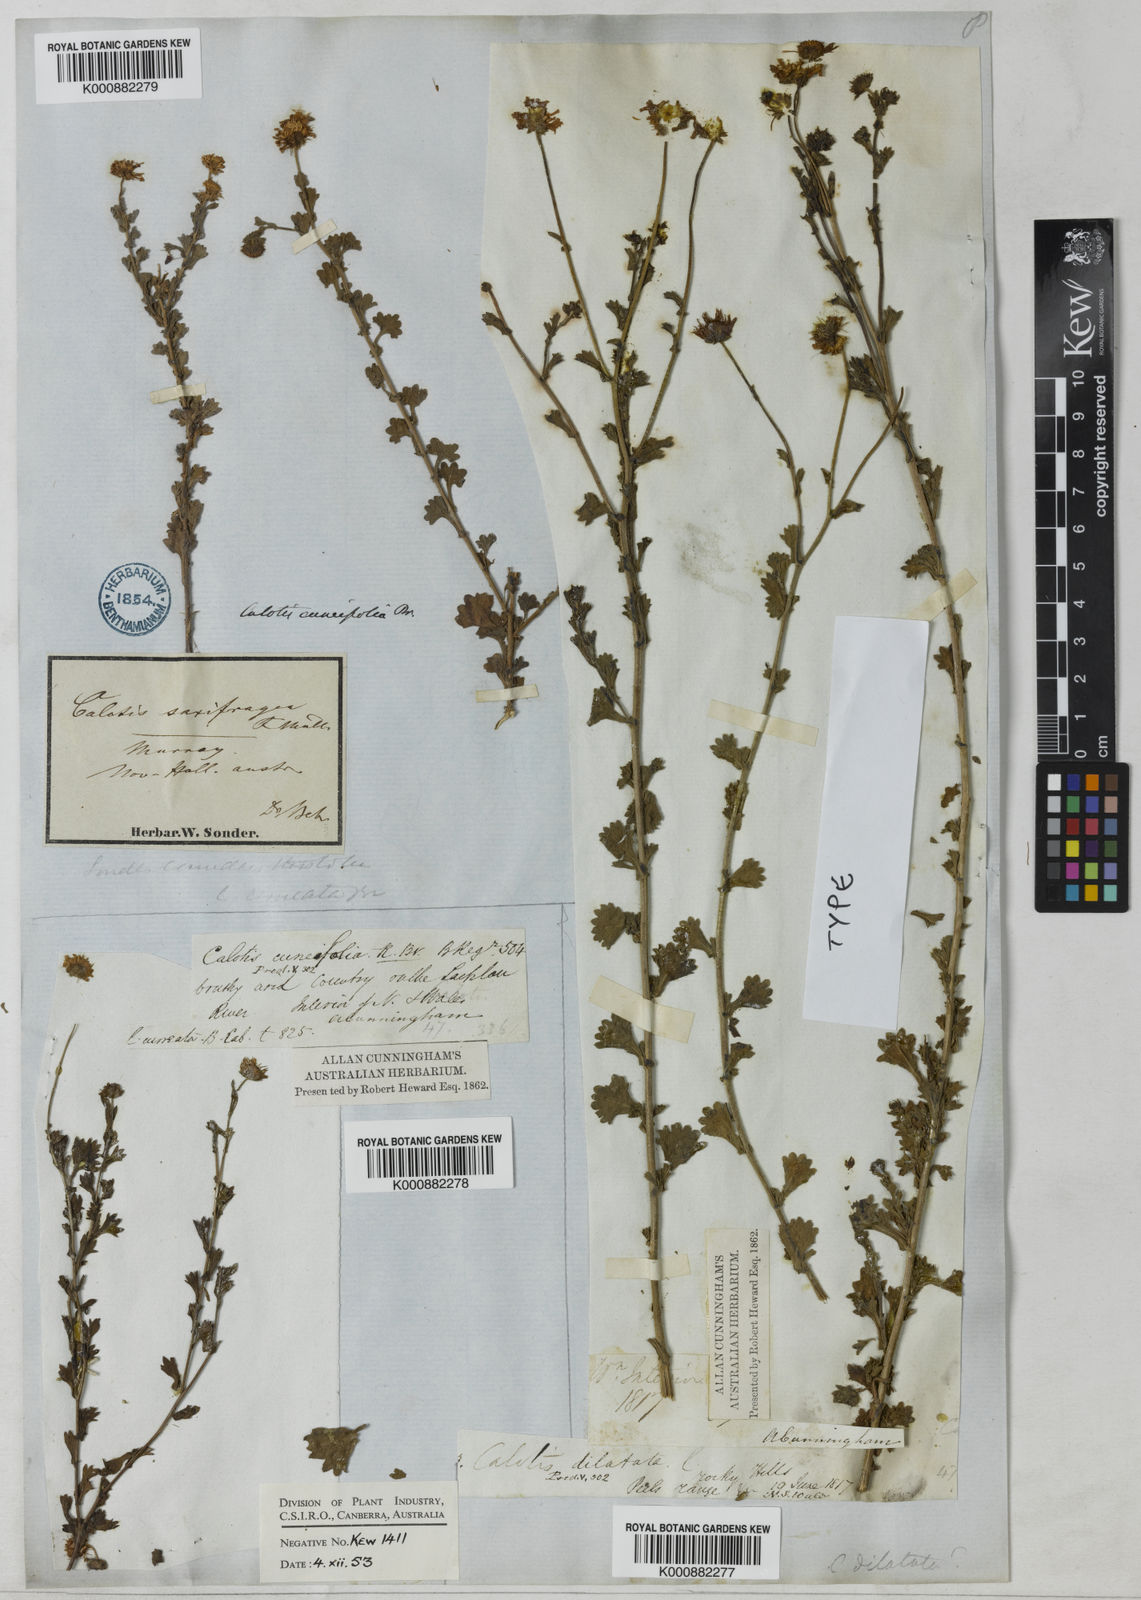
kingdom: Plantae
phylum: Tracheophyta
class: Magnoliopsida
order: Asterales
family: Asteraceae
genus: Calotis
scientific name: Calotis cuneifolia
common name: Bur-daisy
